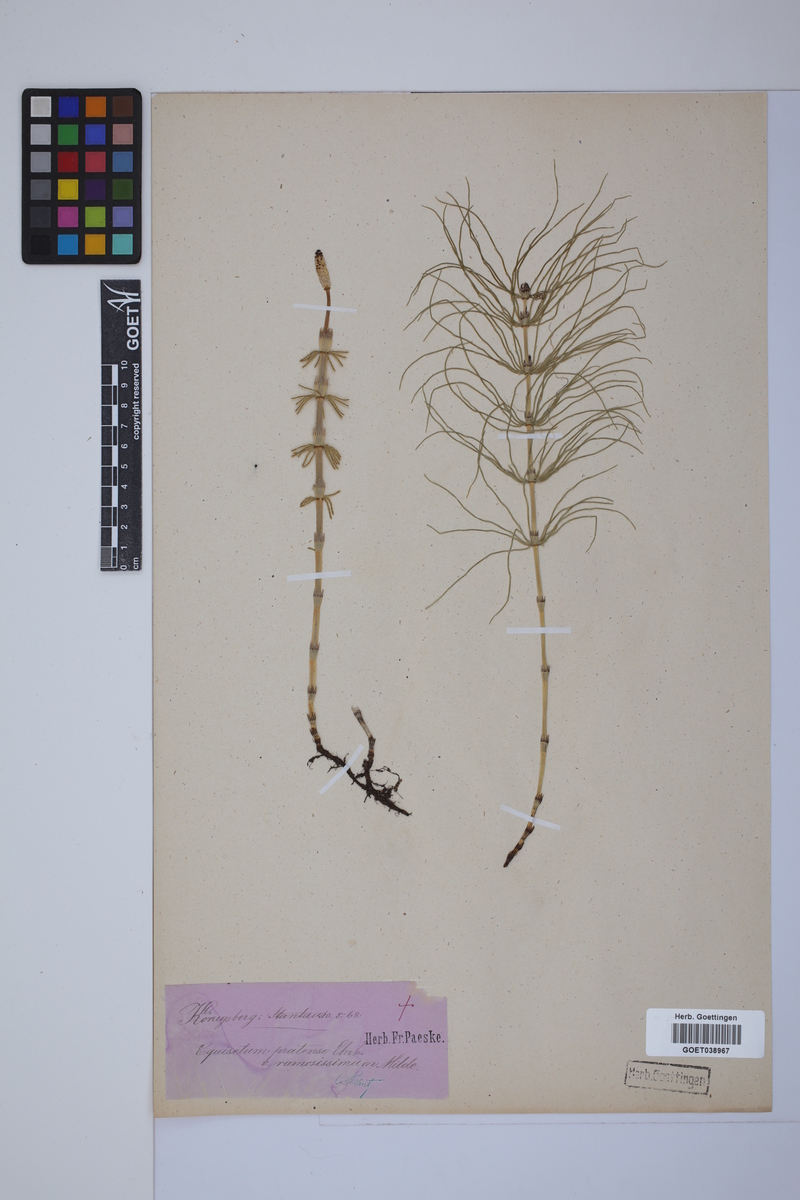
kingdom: Plantae
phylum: Tracheophyta
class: Polypodiopsida
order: Equisetales
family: Equisetaceae
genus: Equisetum
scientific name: Equisetum pratense
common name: Meadow horsetail
